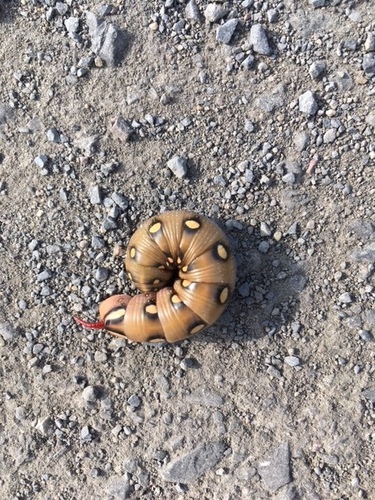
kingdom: Animalia
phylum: Arthropoda
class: Insecta
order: Lepidoptera
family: Sphingidae
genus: Hyles
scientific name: Hyles gallii
